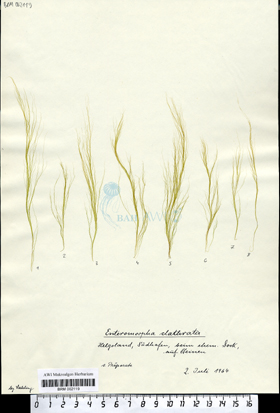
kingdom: Plantae
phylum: Chlorophyta
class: Ulvophyceae
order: Ulvales
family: Ulvaceae
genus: Ulva
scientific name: Ulva clathrata
